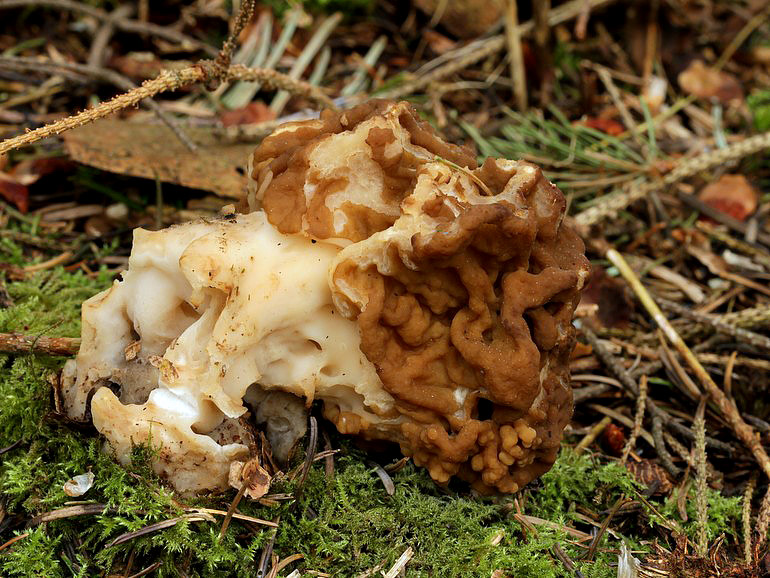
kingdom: Fungi
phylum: Ascomycota
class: Pezizomycetes
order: Pezizales
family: Discinaceae
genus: Gyromitra
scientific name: Gyromitra gigas
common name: kæmpe-stenmorkel
